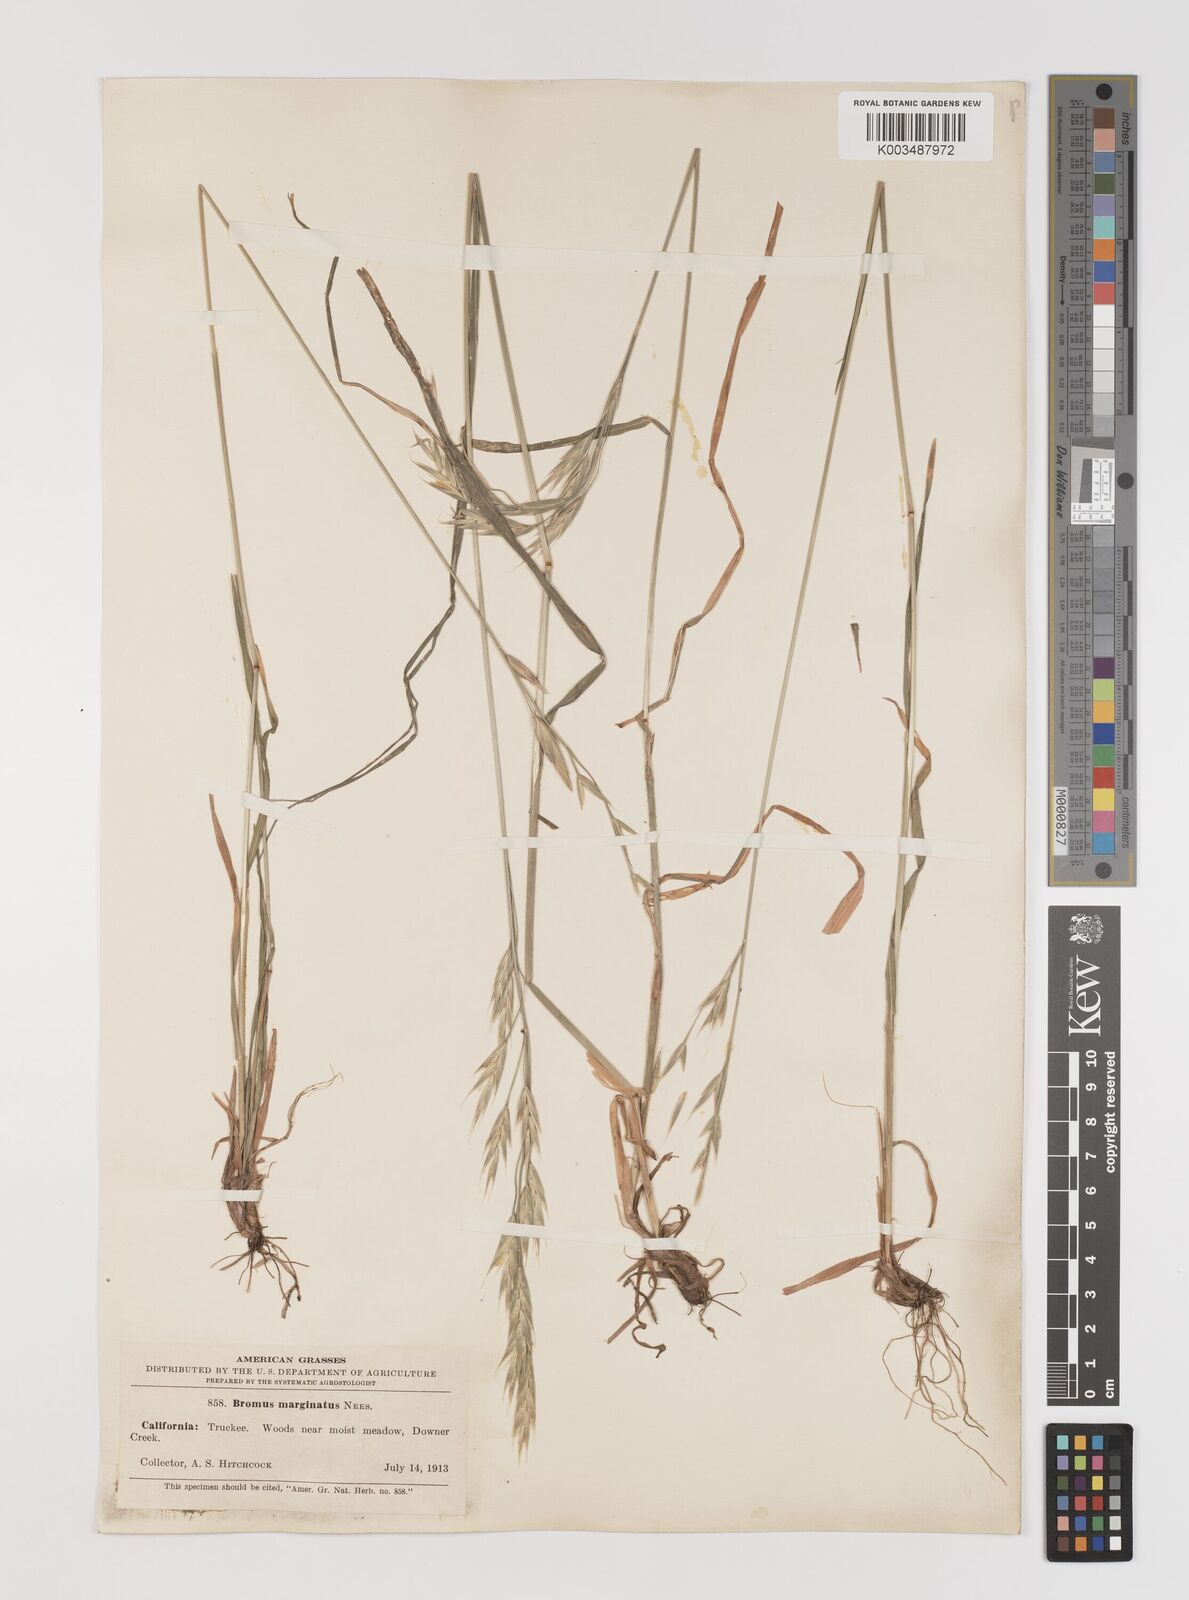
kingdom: Plantae
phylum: Tracheophyta
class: Liliopsida
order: Poales
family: Poaceae
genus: Bromus
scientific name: Bromus marginatus
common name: Western brome
